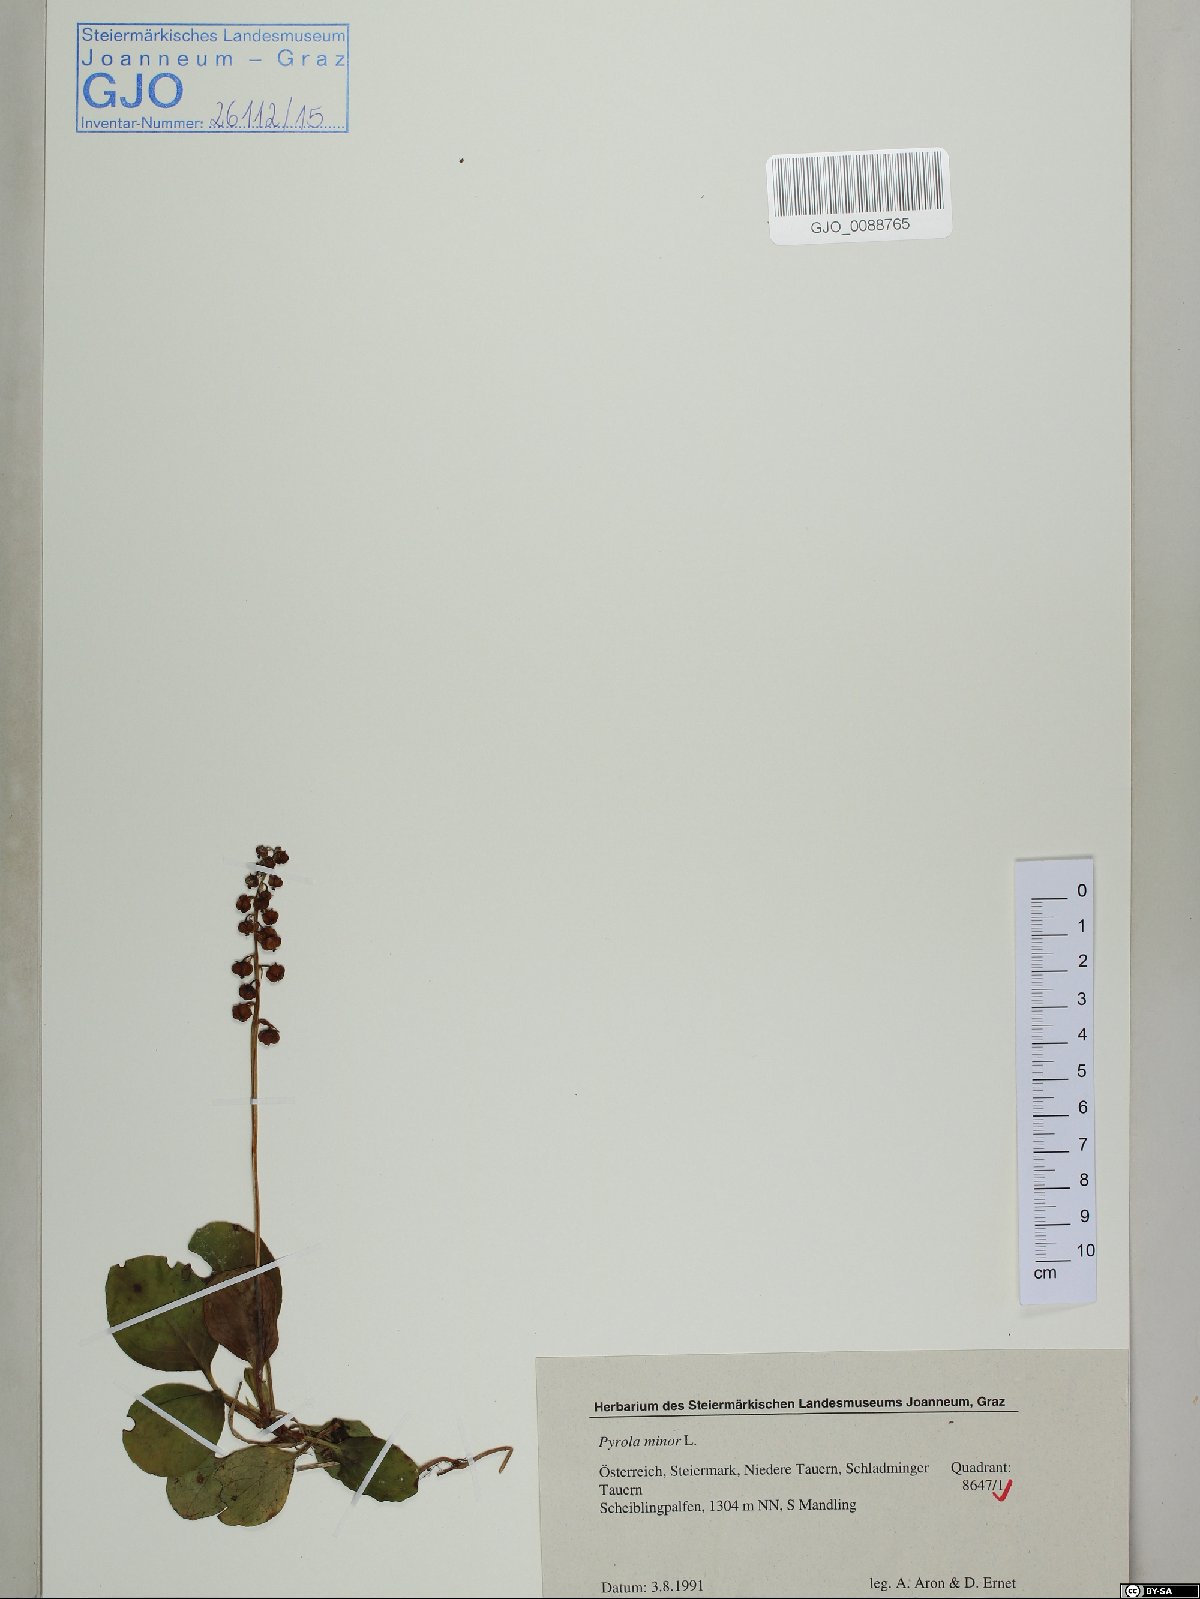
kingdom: Plantae
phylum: Tracheophyta
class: Magnoliopsida
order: Ericales
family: Ericaceae
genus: Pyrola
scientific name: Pyrola minor
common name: Common wintergreen
